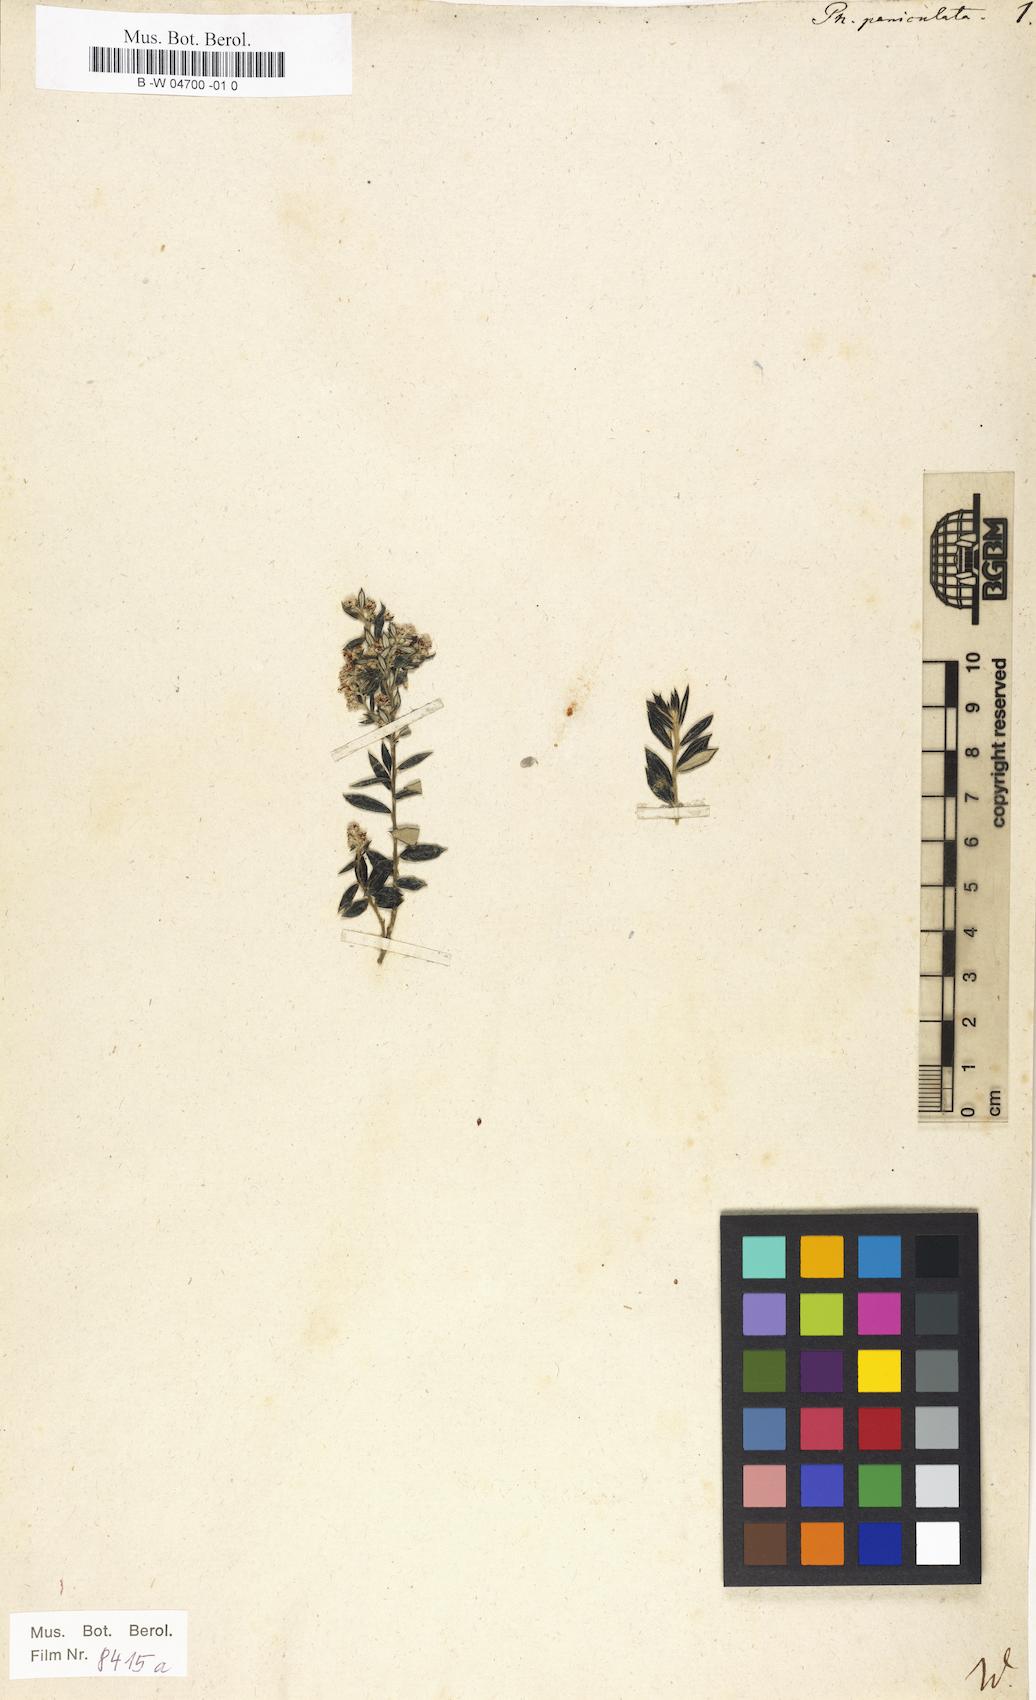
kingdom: Plantae
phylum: Tracheophyta
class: Magnoliopsida
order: Rosales
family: Rhamnaceae
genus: Phylica
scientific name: Phylica paniculata
